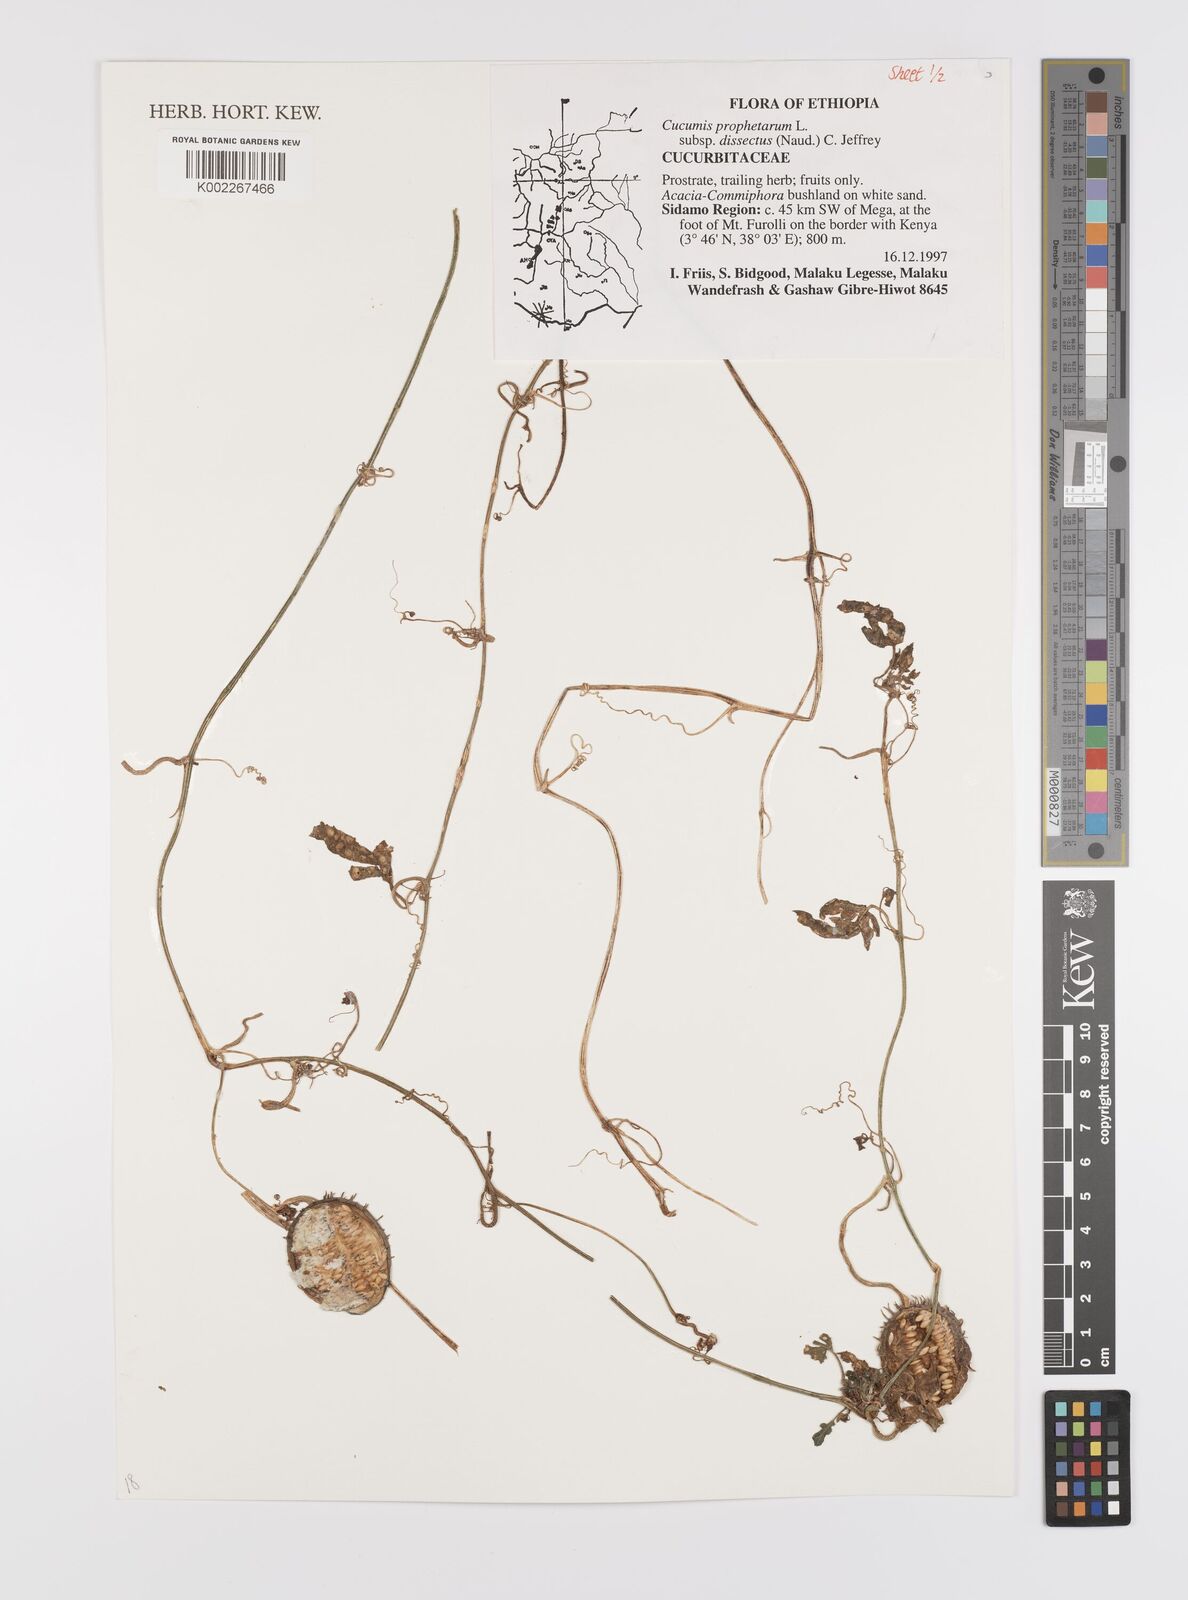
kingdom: Plantae
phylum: Tracheophyta
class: Magnoliopsida
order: Cucurbitales
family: Cucurbitaceae
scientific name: Cucurbitaceae
